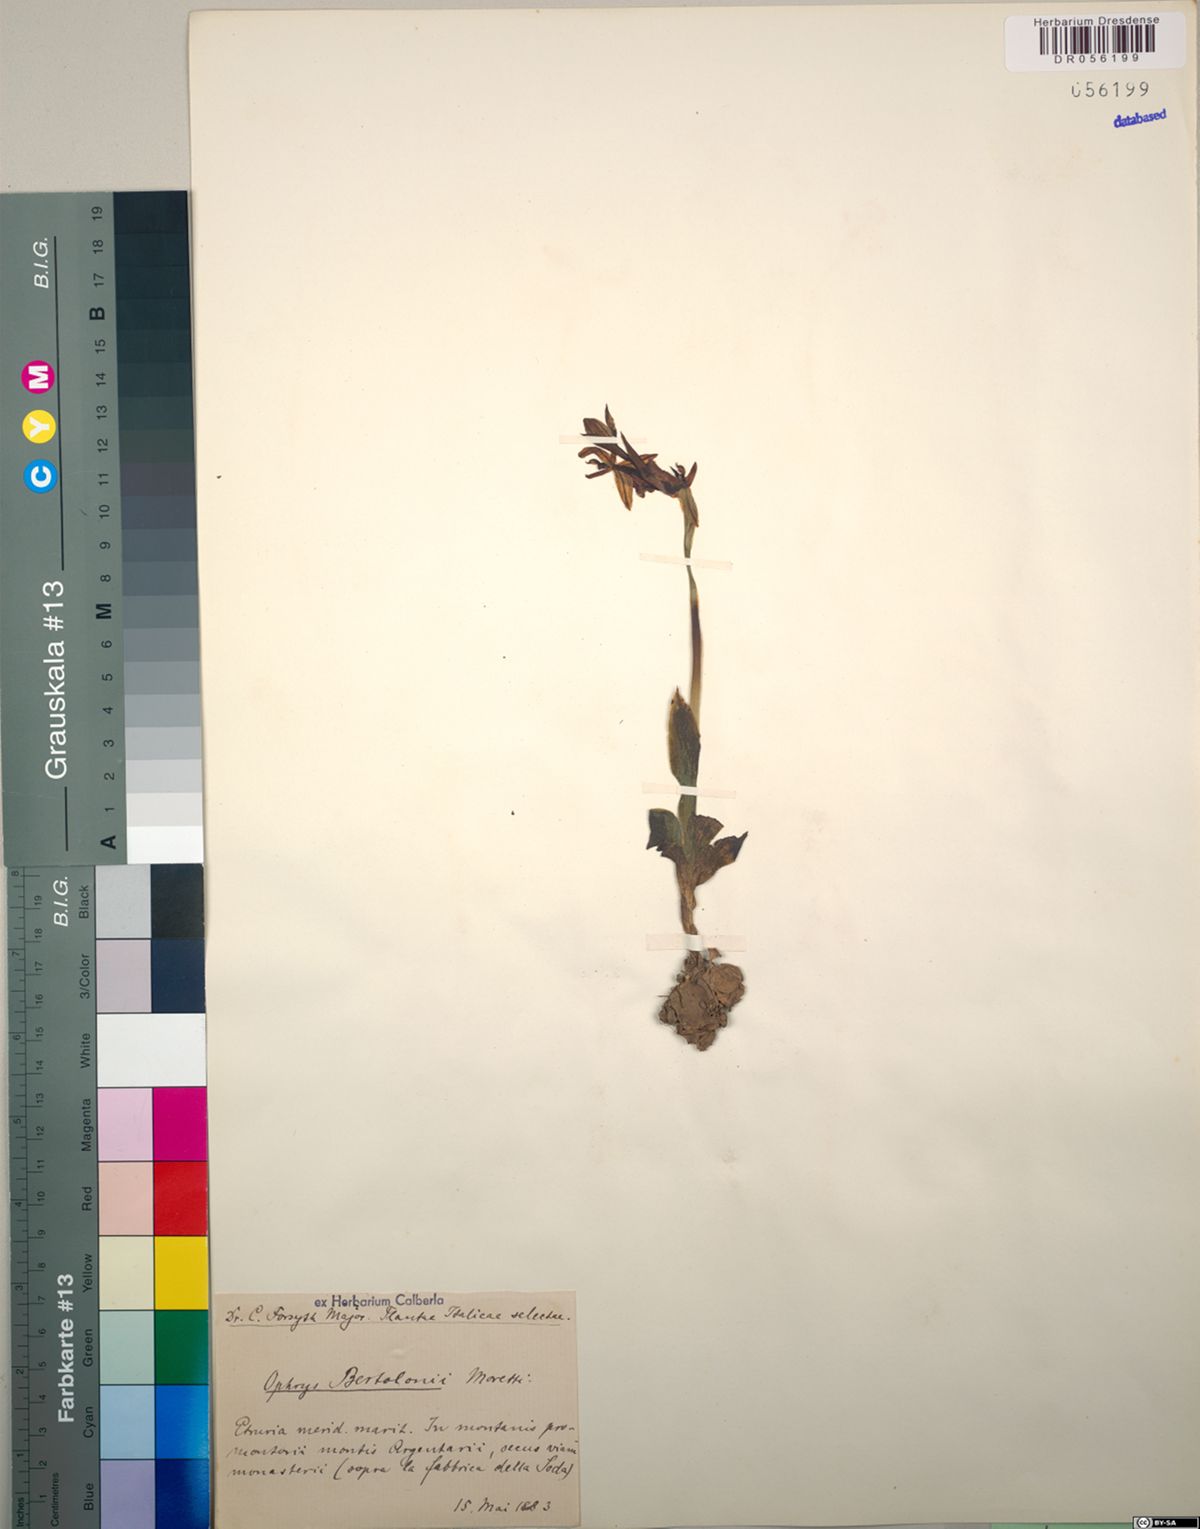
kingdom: Plantae
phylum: Tracheophyta
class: Liliopsida
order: Asparagales
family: Orchidaceae
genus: Ophrys
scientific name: Ophrys bertolonii
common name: Bertoloni's bee orchid
